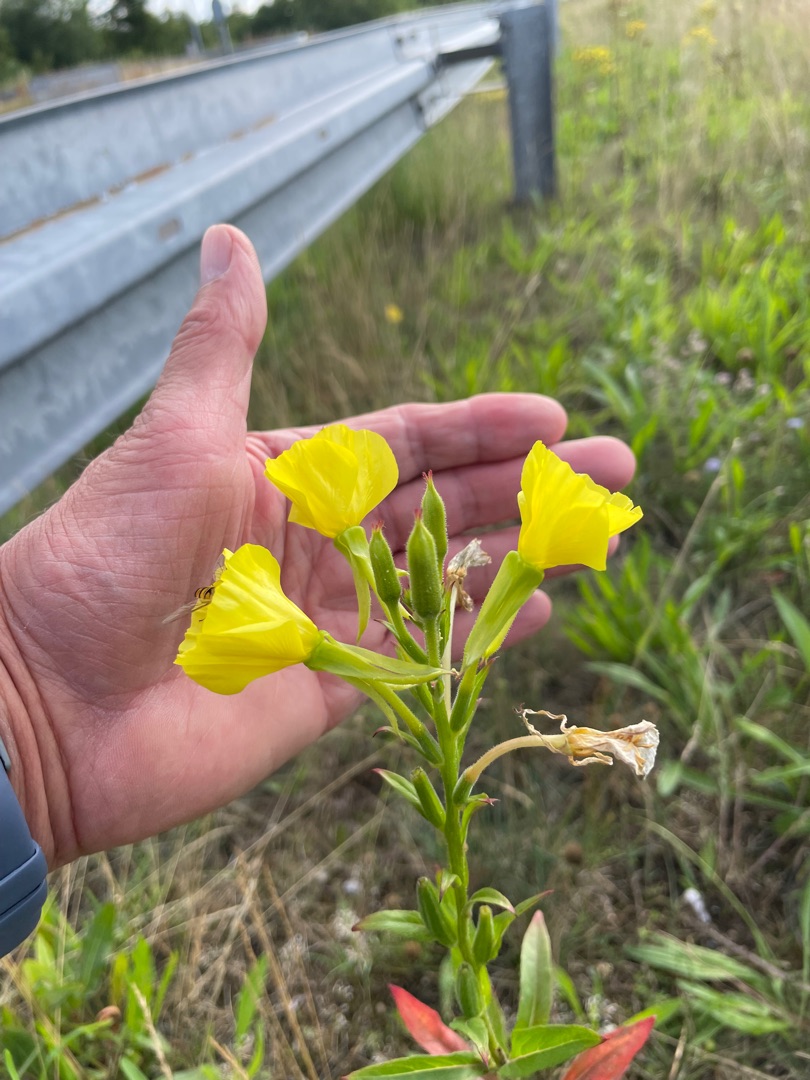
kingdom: Plantae
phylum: Tracheophyta
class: Magnoliopsida
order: Myrtales
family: Onagraceae
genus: Oenothera
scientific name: Oenothera
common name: Natlysslægten
